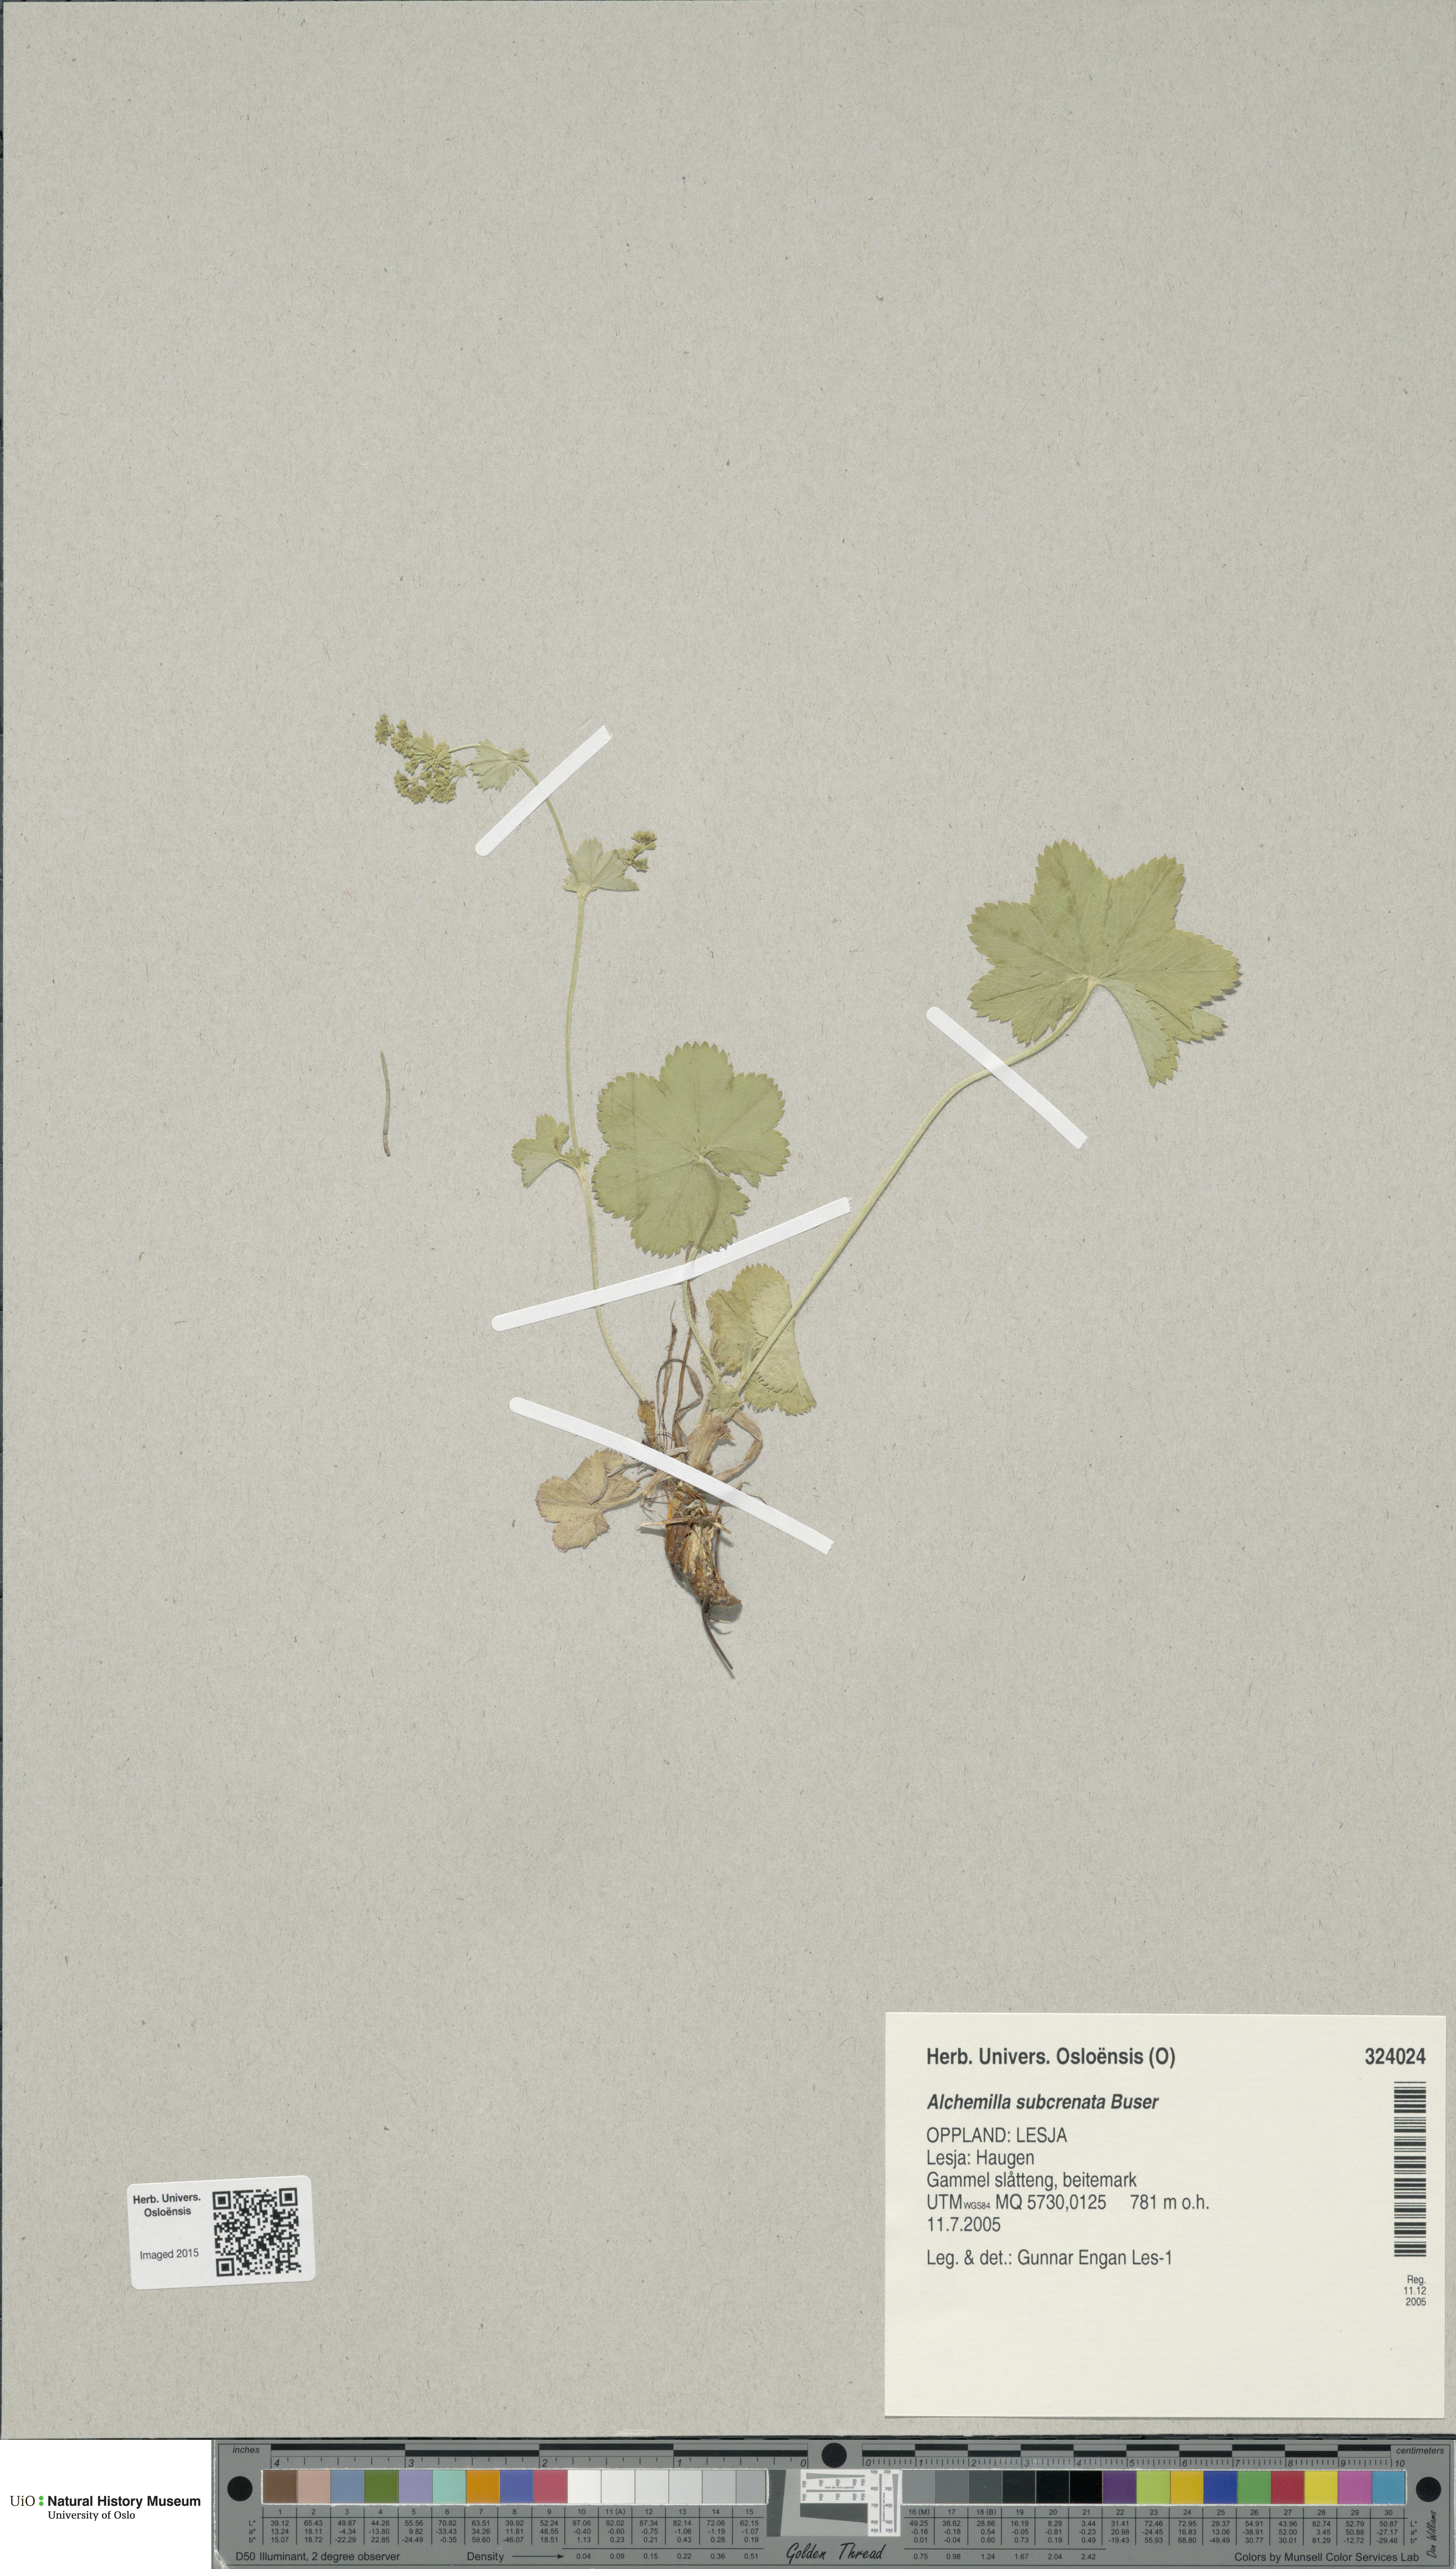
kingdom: Plantae
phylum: Tracheophyta
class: Magnoliopsida
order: Rosales
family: Rosaceae
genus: Alchemilla
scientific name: Alchemilla subcrenata
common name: Broadtooth lady's mantle
